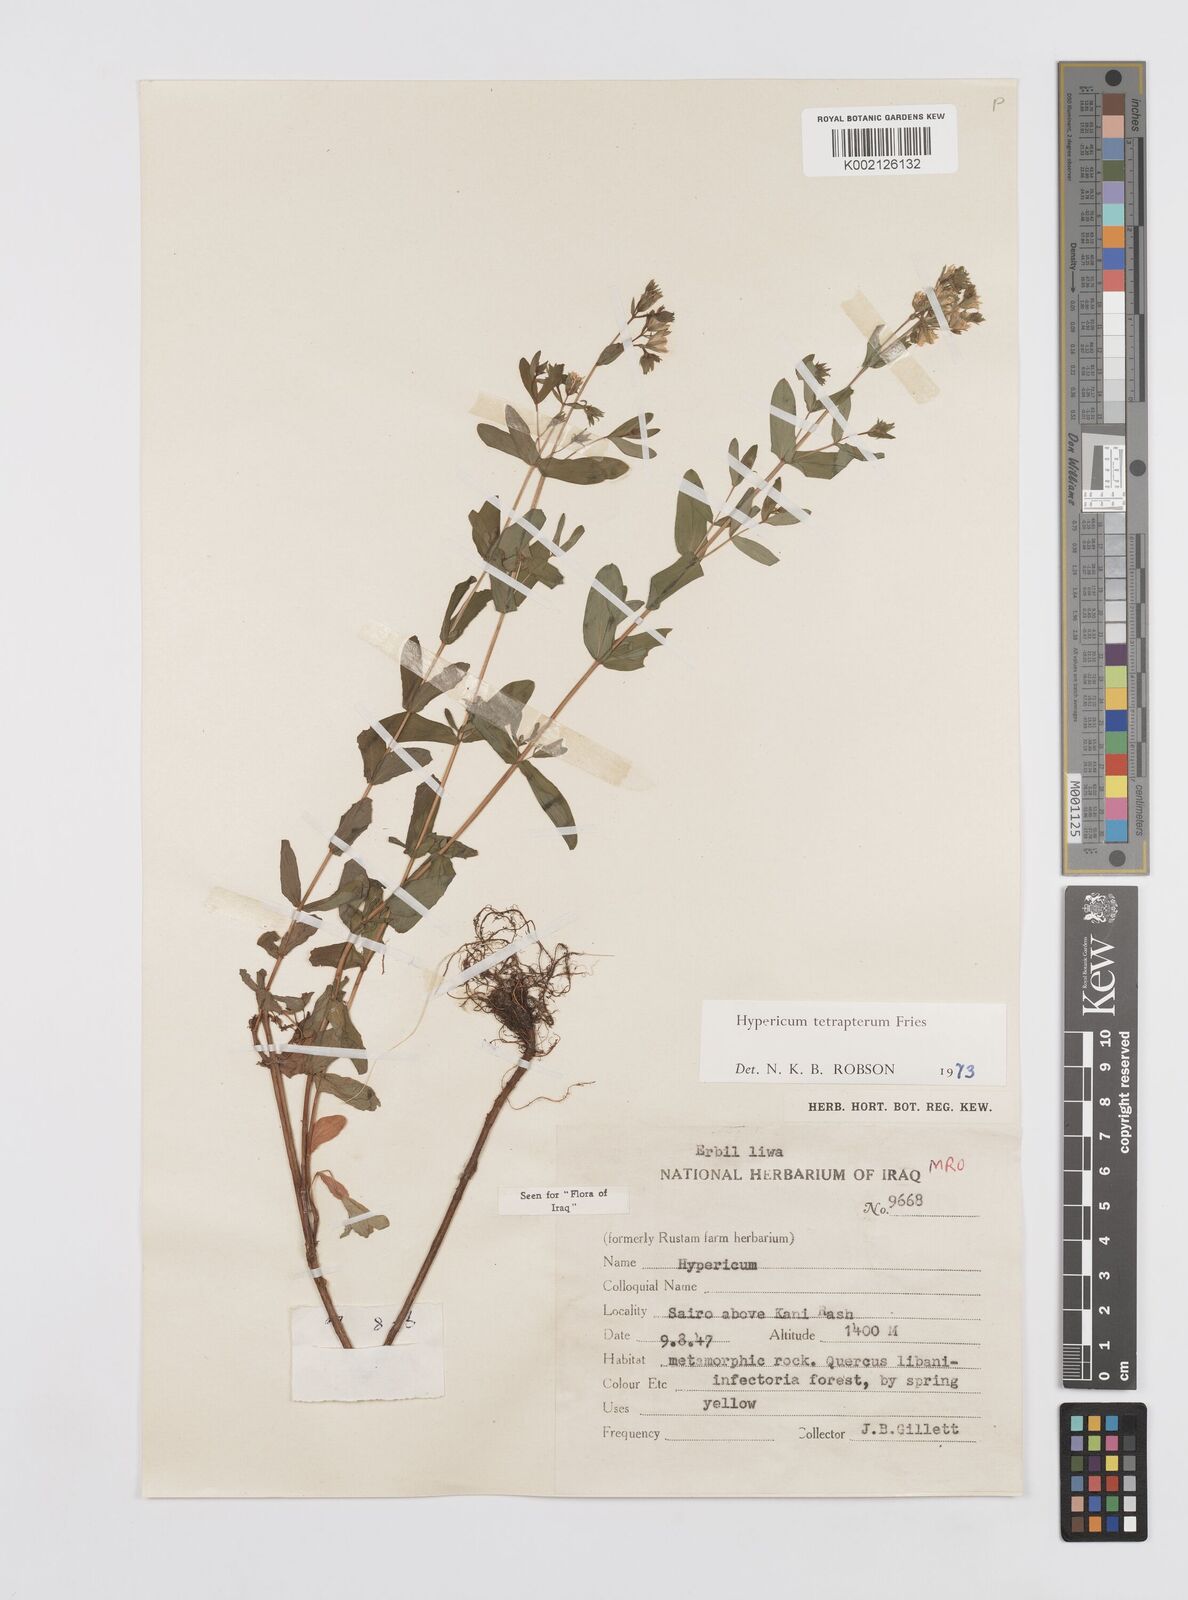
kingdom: Plantae
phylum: Tracheophyta
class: Magnoliopsida
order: Malpighiales
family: Hypericaceae
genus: Hypericum
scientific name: Hypericum tetrapterum
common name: Square-stalked st. john's-wort
